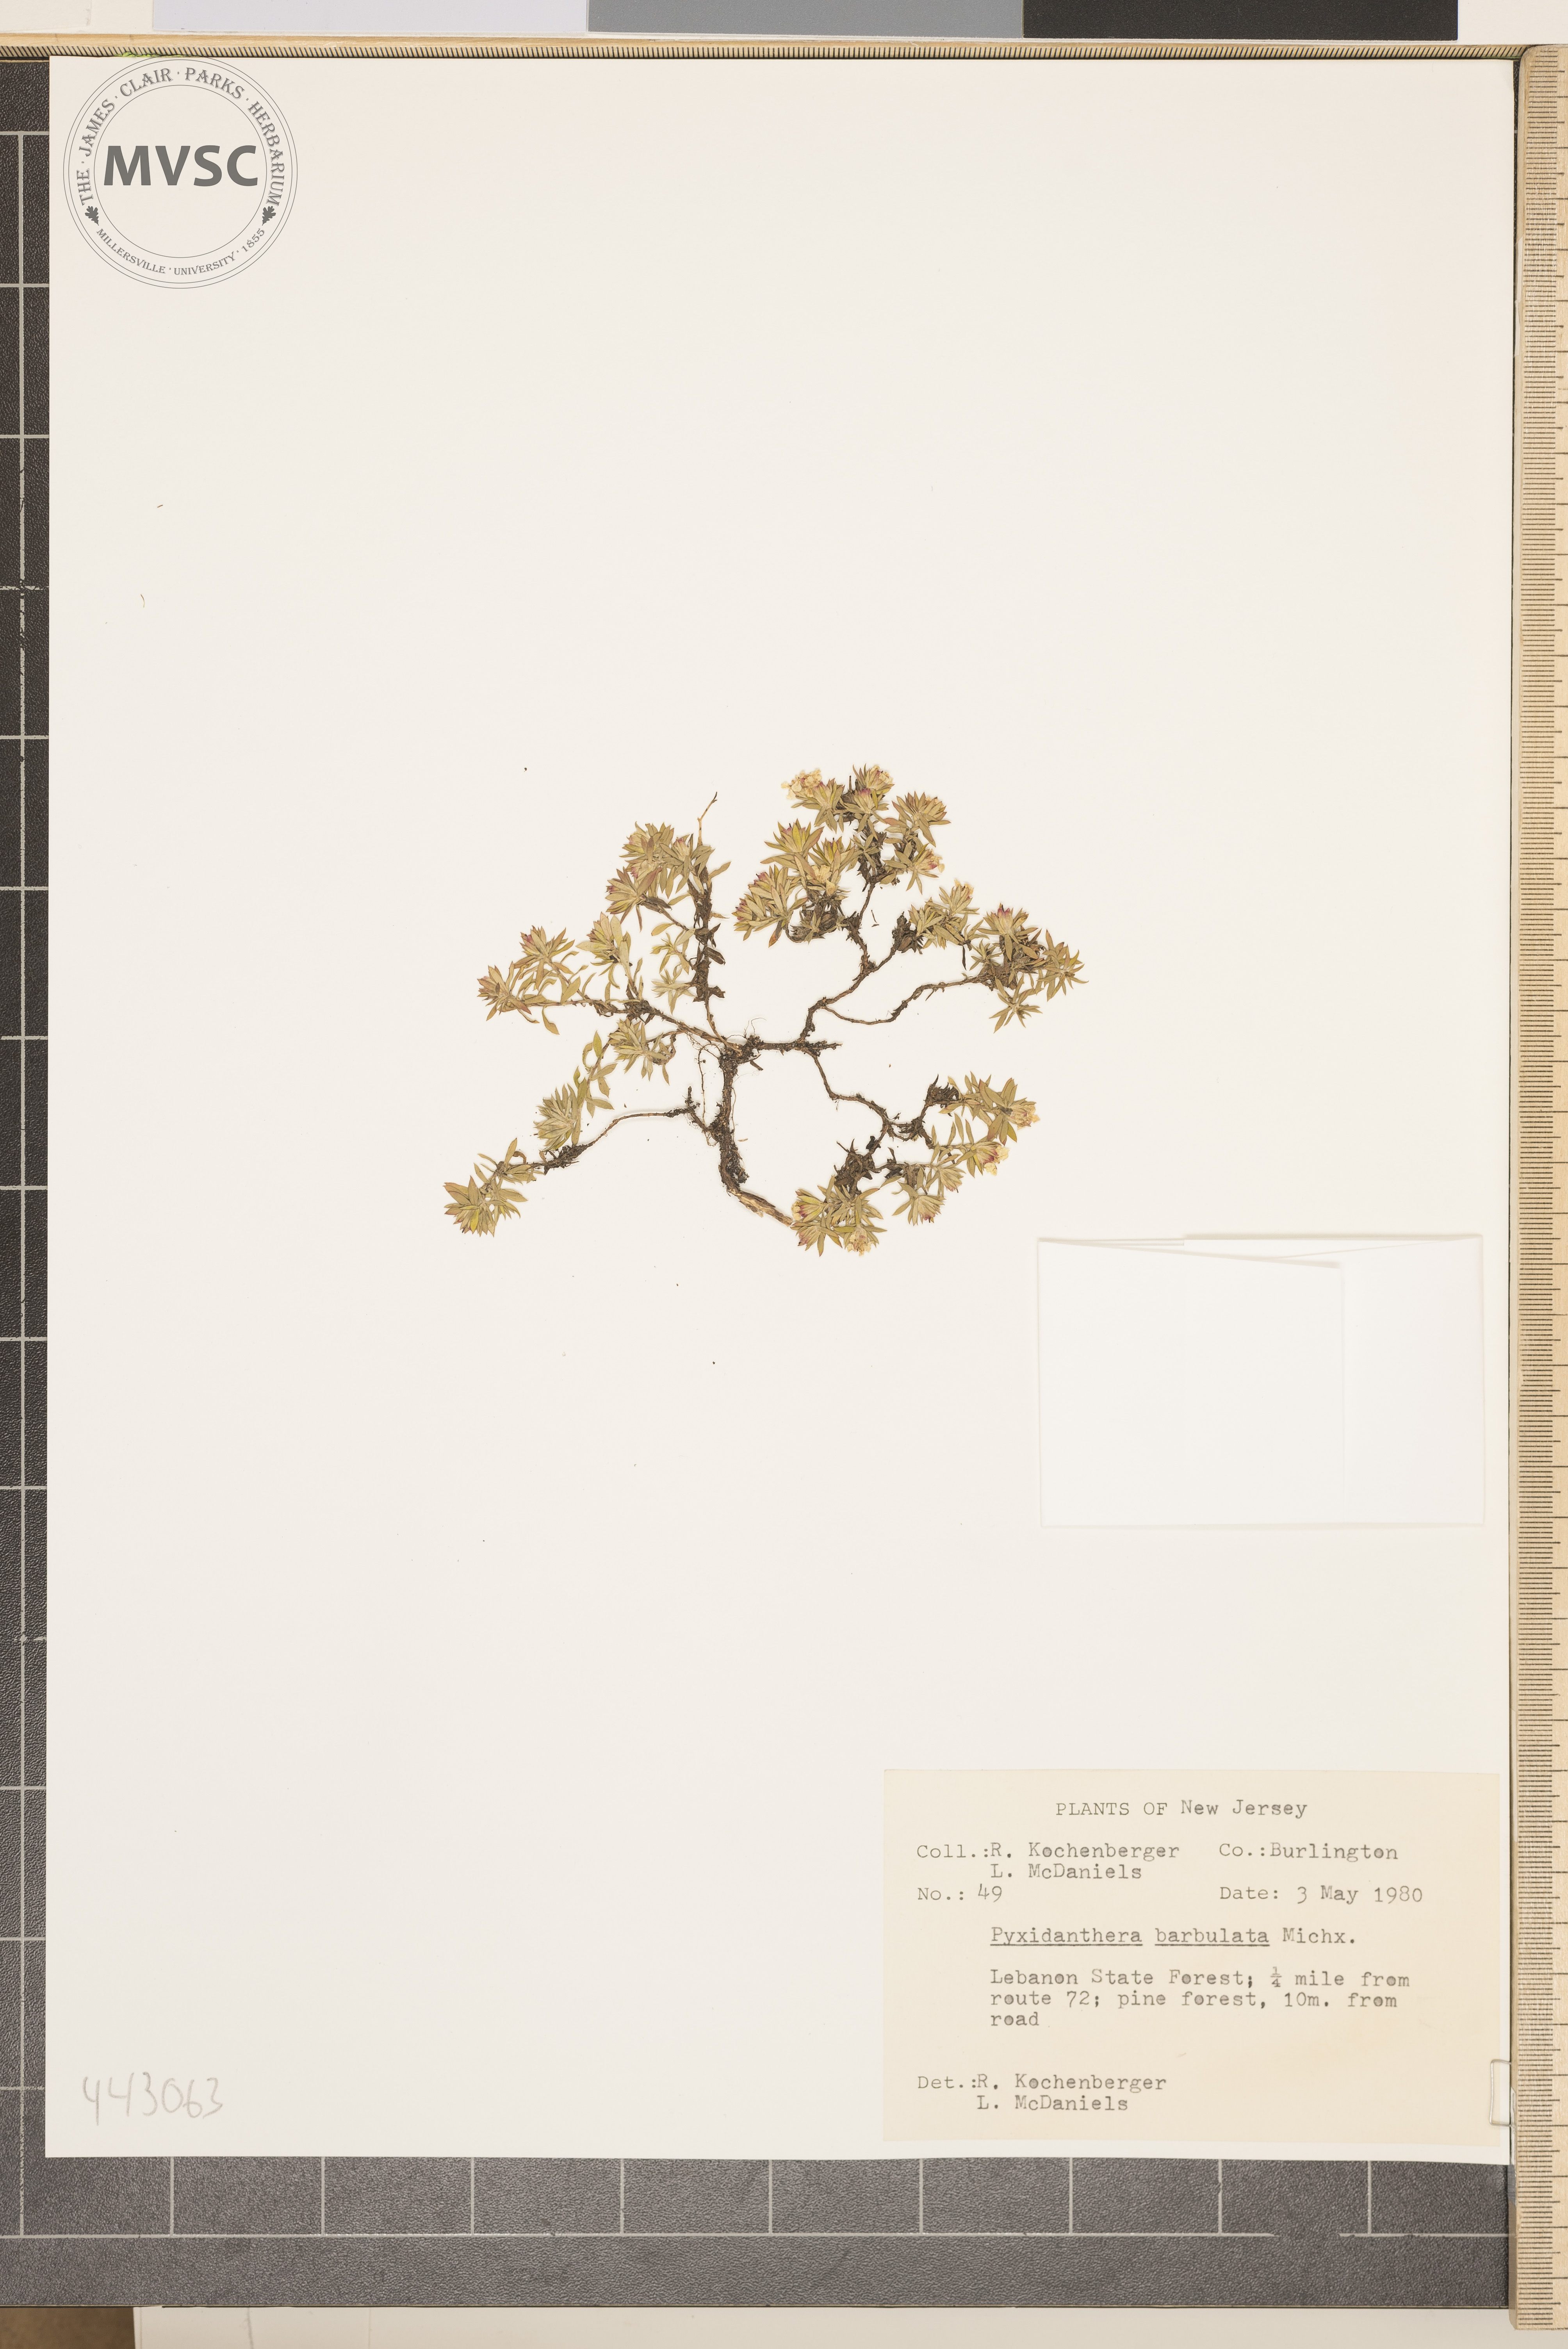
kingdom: Plantae
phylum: Tracheophyta
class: Magnoliopsida
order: Ericales
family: Diapensiaceae
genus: Pyxidanthera
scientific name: Pyxidanthera barbulata
